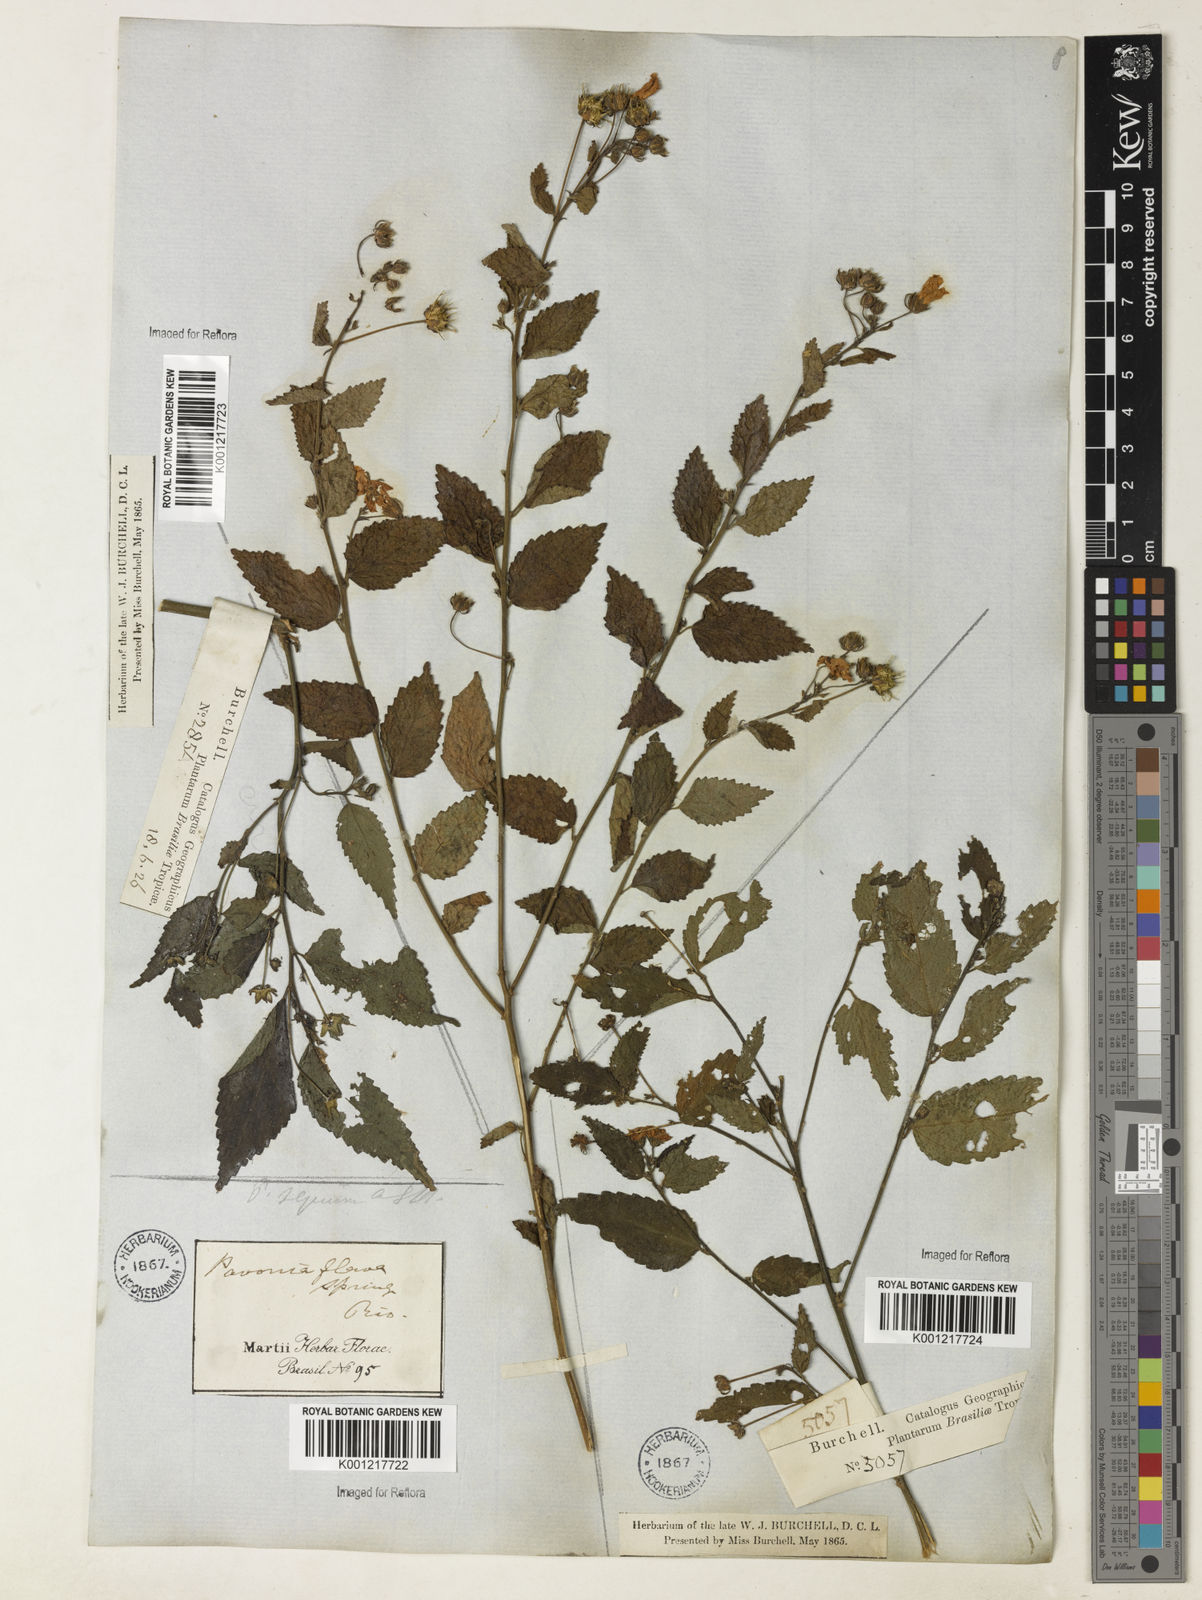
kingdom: Plantae
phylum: Tracheophyta
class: Magnoliopsida
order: Malvales
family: Malvaceae
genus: Pavonia
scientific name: Pavonia sepium
